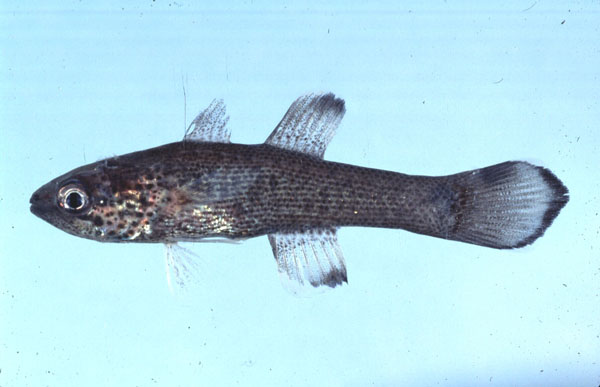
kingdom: Animalia
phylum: Chordata
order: Perciformes
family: Apogonidae
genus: Pseudamia
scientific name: Pseudamia gelatinosa
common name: Gelatinous cardinalfish
